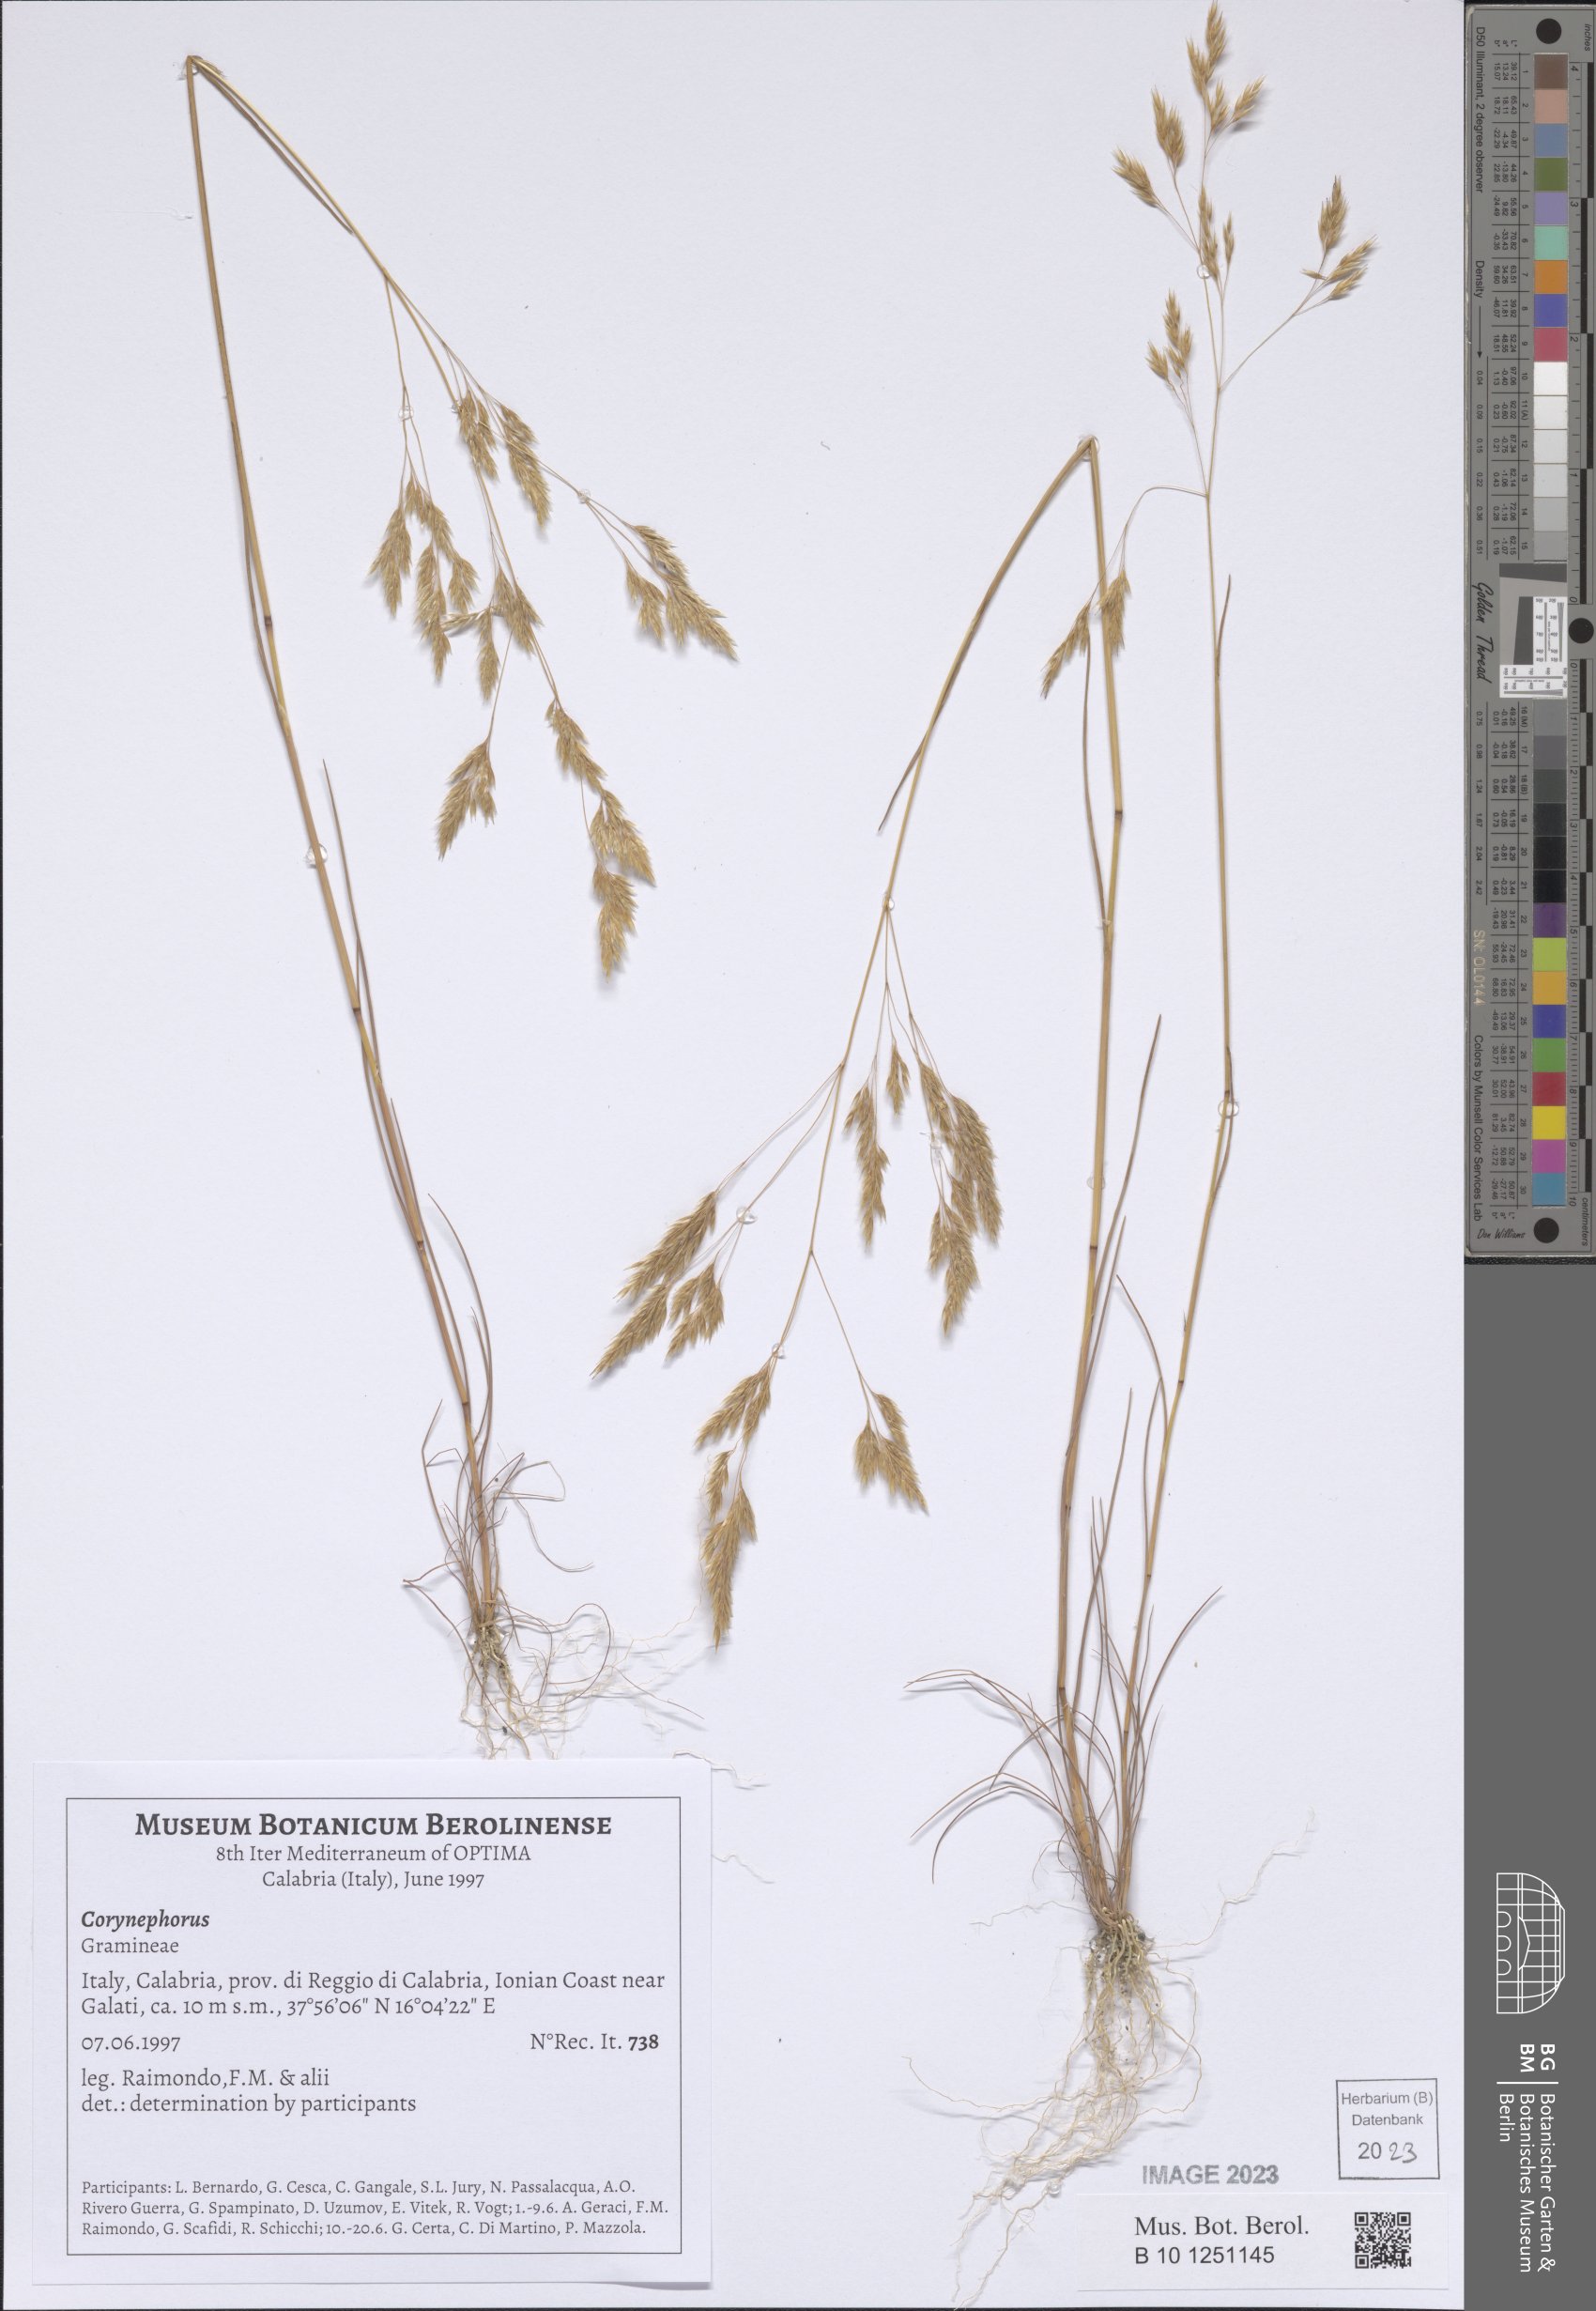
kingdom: Plantae
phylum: Tracheophyta
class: Liliopsida
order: Poales
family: Poaceae
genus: Corynephorus
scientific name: Corynephorus
